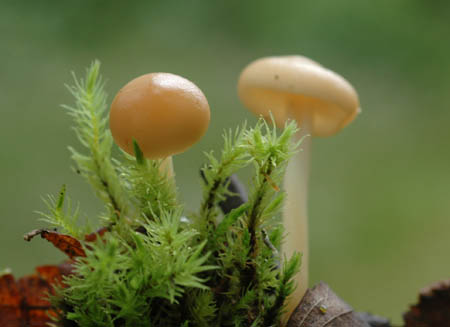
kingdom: Fungi
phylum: Basidiomycota
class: Agaricomycetes
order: Agaricales
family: Omphalotaceae
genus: Gymnopus
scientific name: Gymnopus aquosus
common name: bleg fladhat
